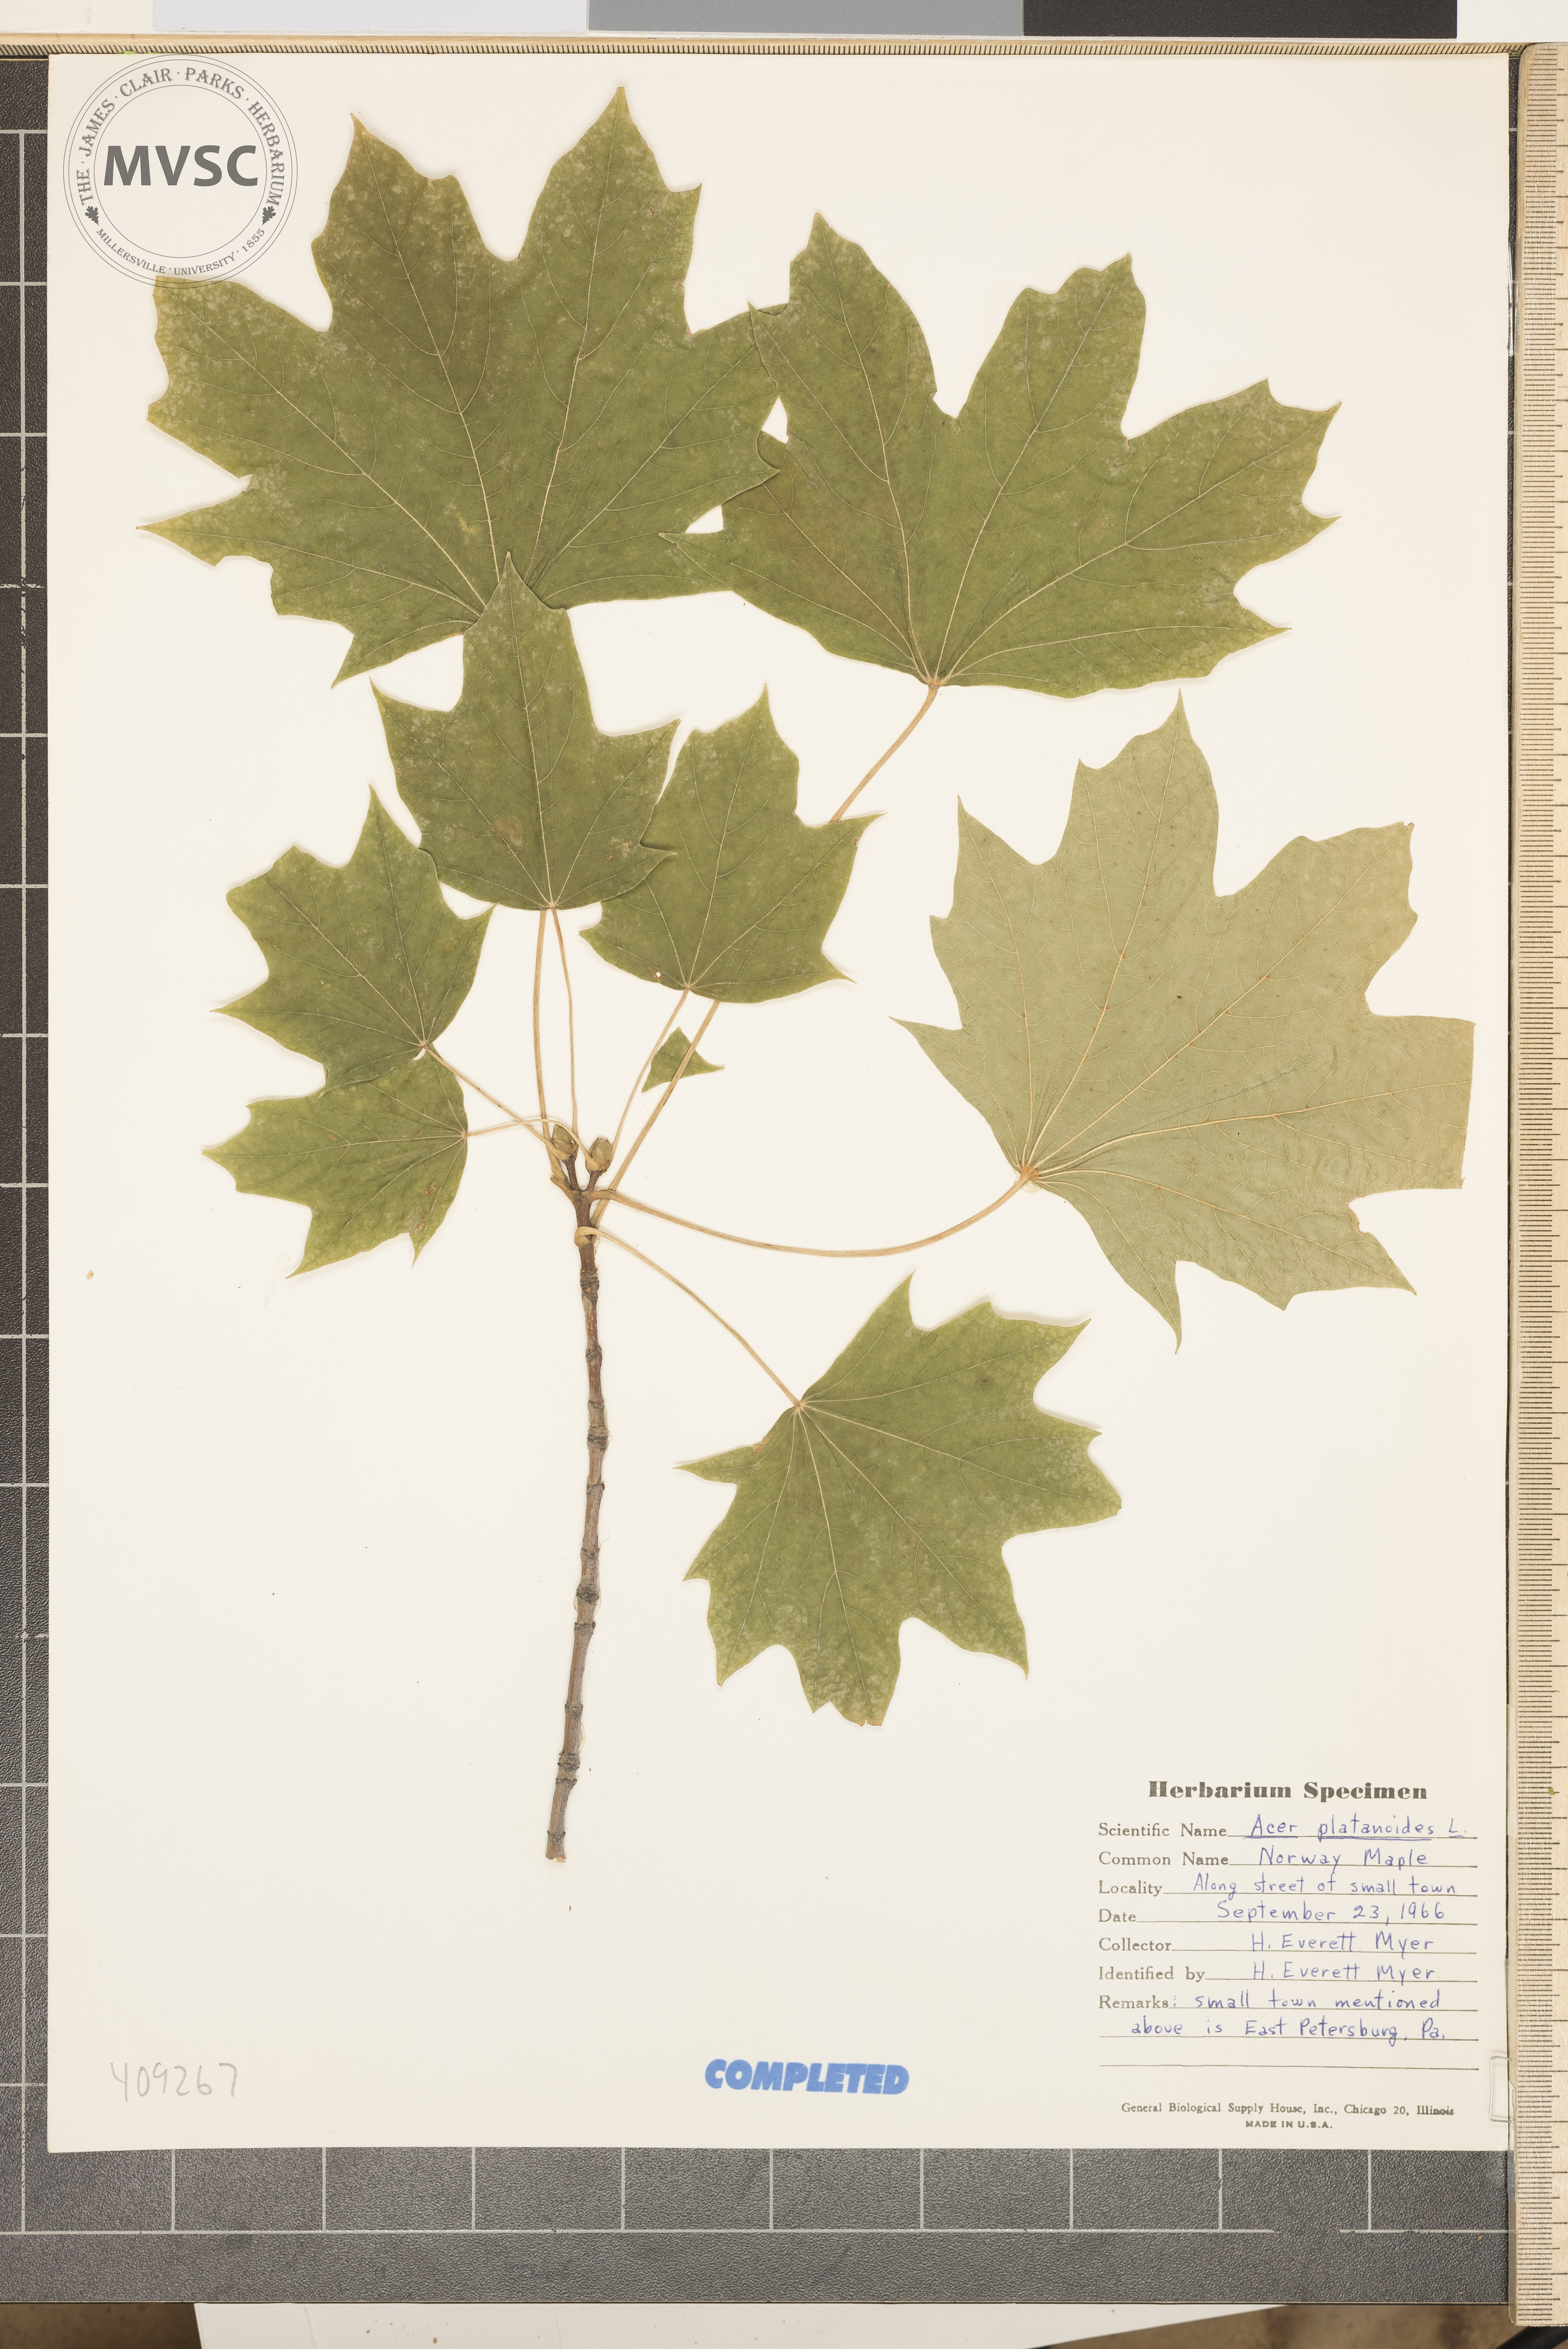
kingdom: Plantae
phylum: Tracheophyta
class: Magnoliopsida
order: Sapindales
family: Sapindaceae
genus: Acer
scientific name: Acer platanoides
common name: Norway maple
